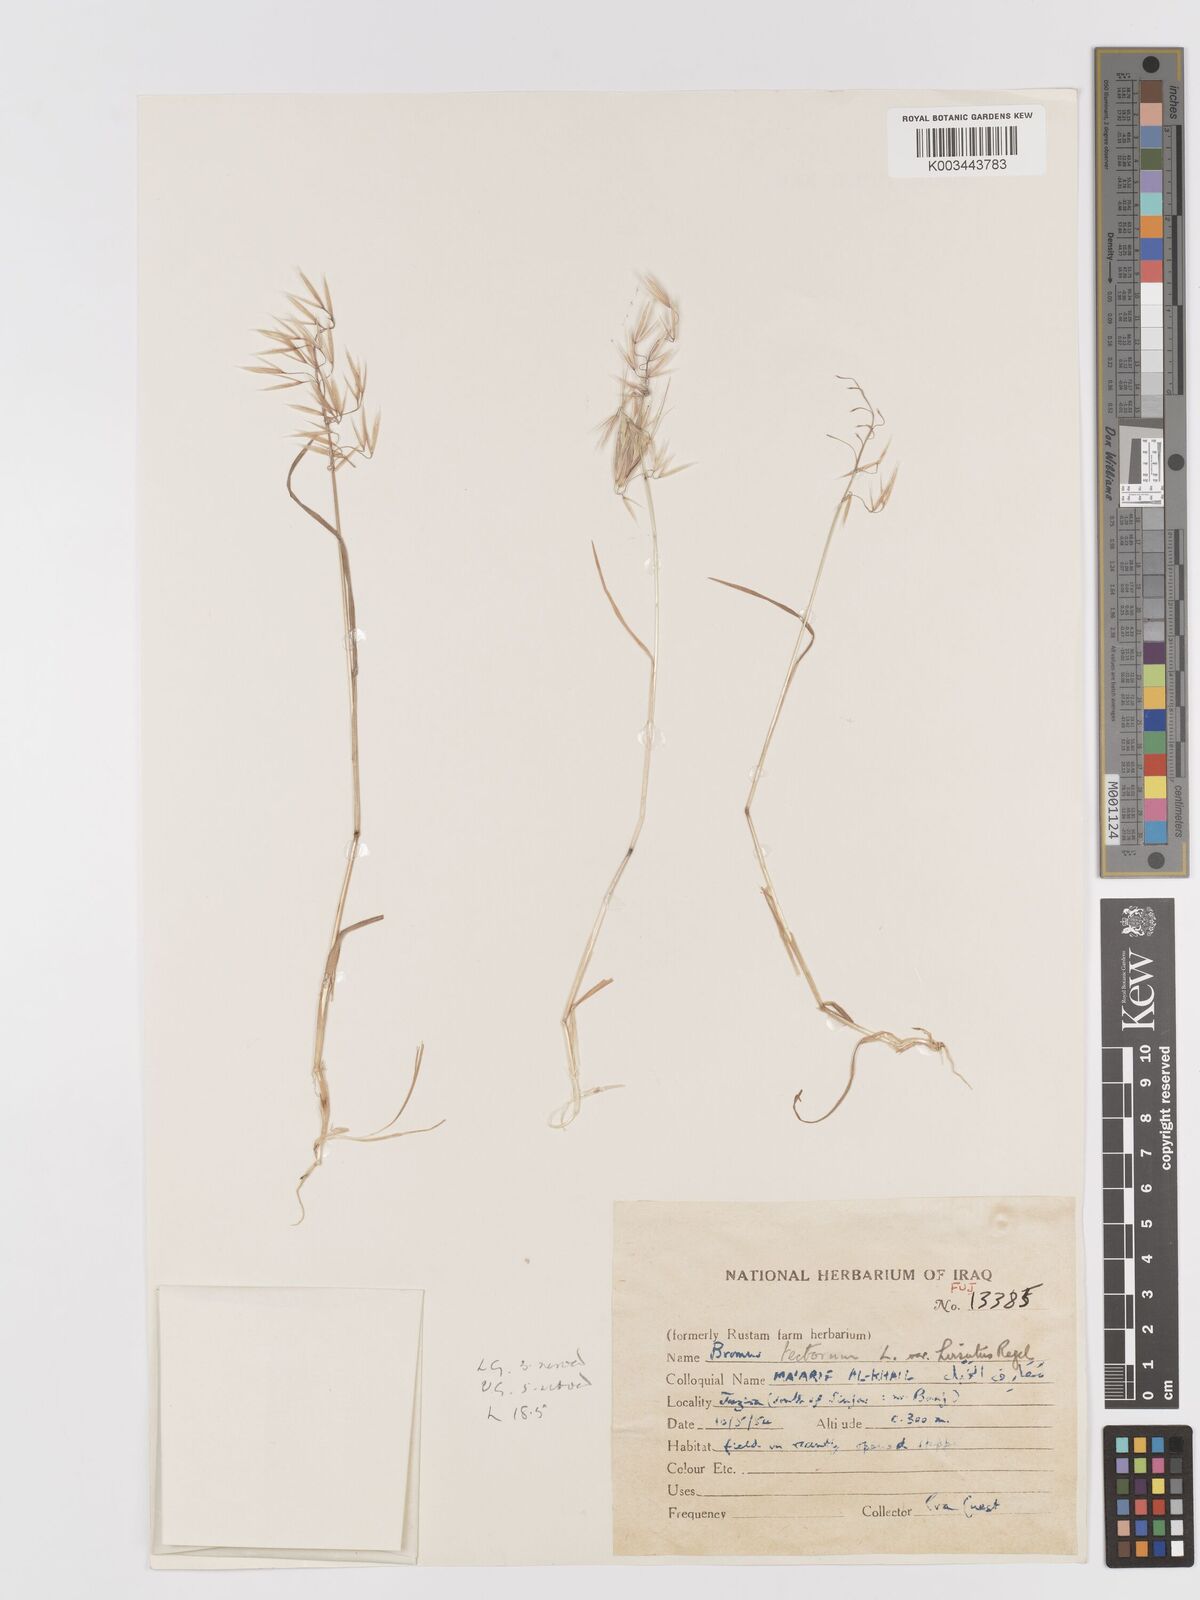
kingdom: Plantae
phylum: Tracheophyta
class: Liliopsida
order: Poales
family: Poaceae
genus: Bromus
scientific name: Bromus tectorum
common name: Cheatgrass
